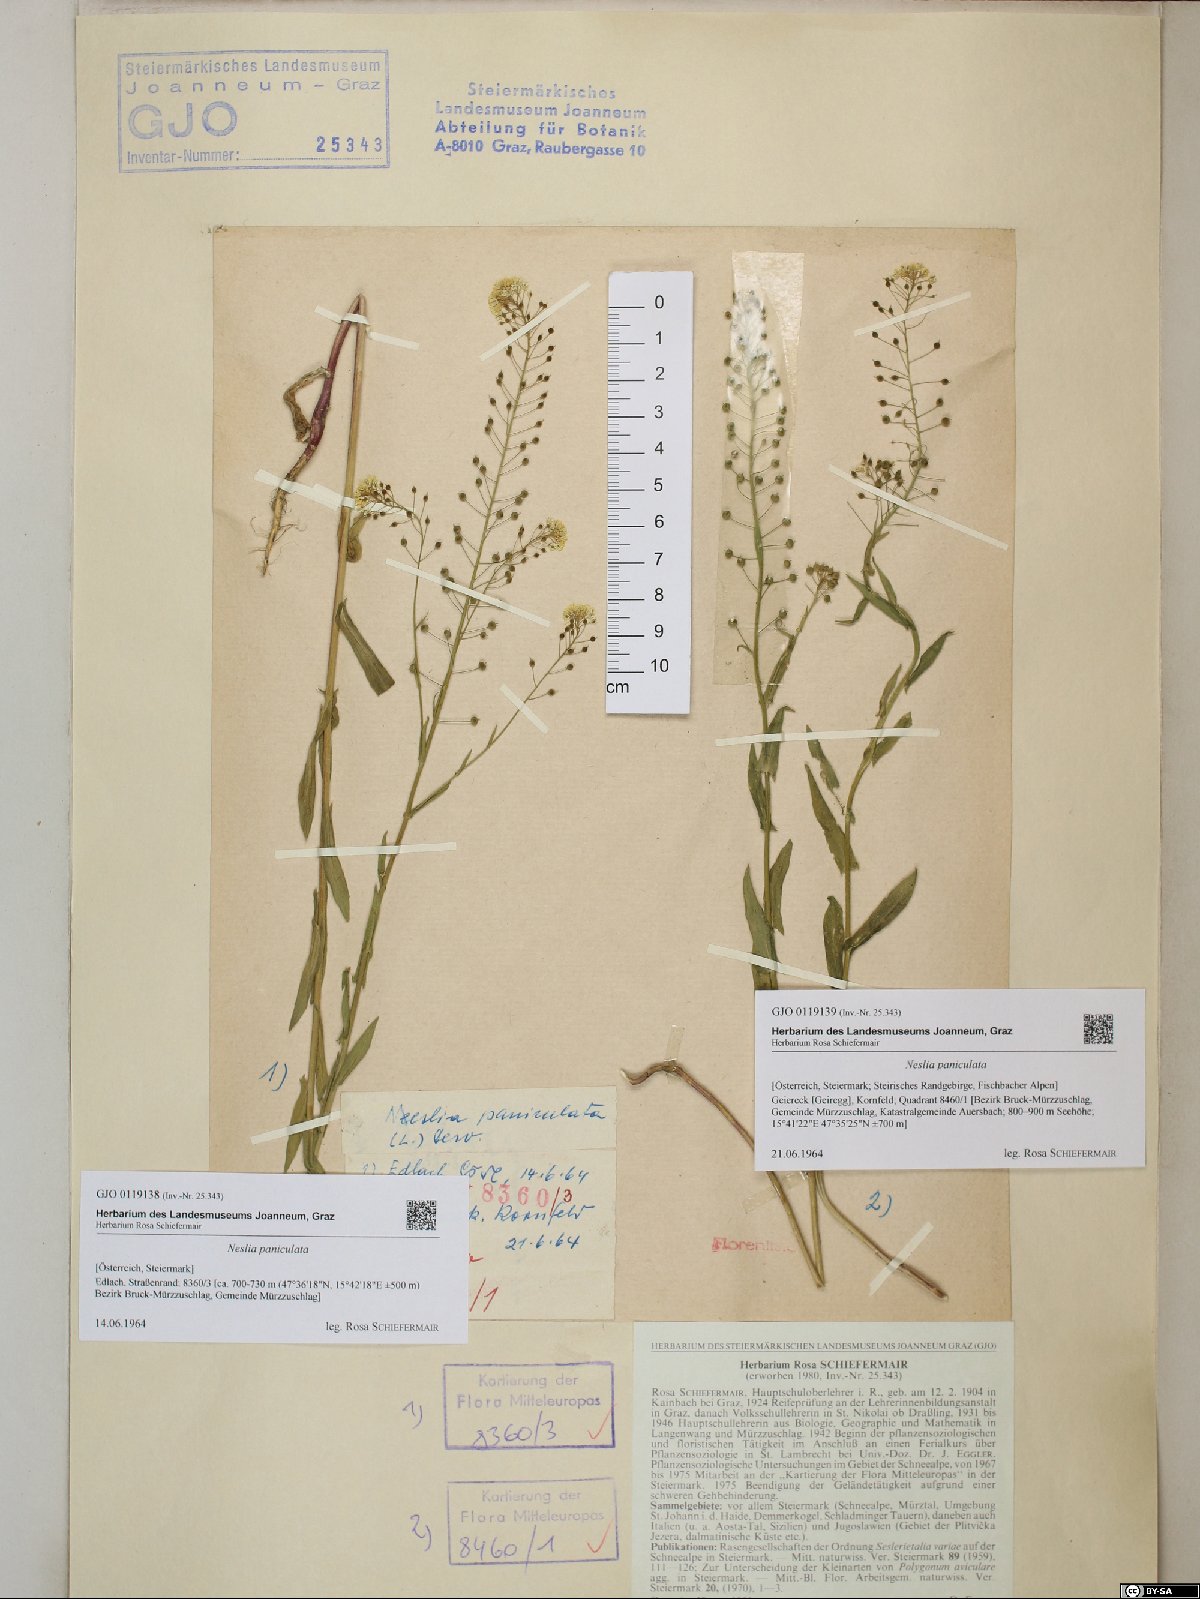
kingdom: Plantae
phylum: Tracheophyta
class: Magnoliopsida
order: Brassicales
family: Brassicaceae
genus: Neslia
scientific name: Neslia paniculata
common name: Ball mustard
